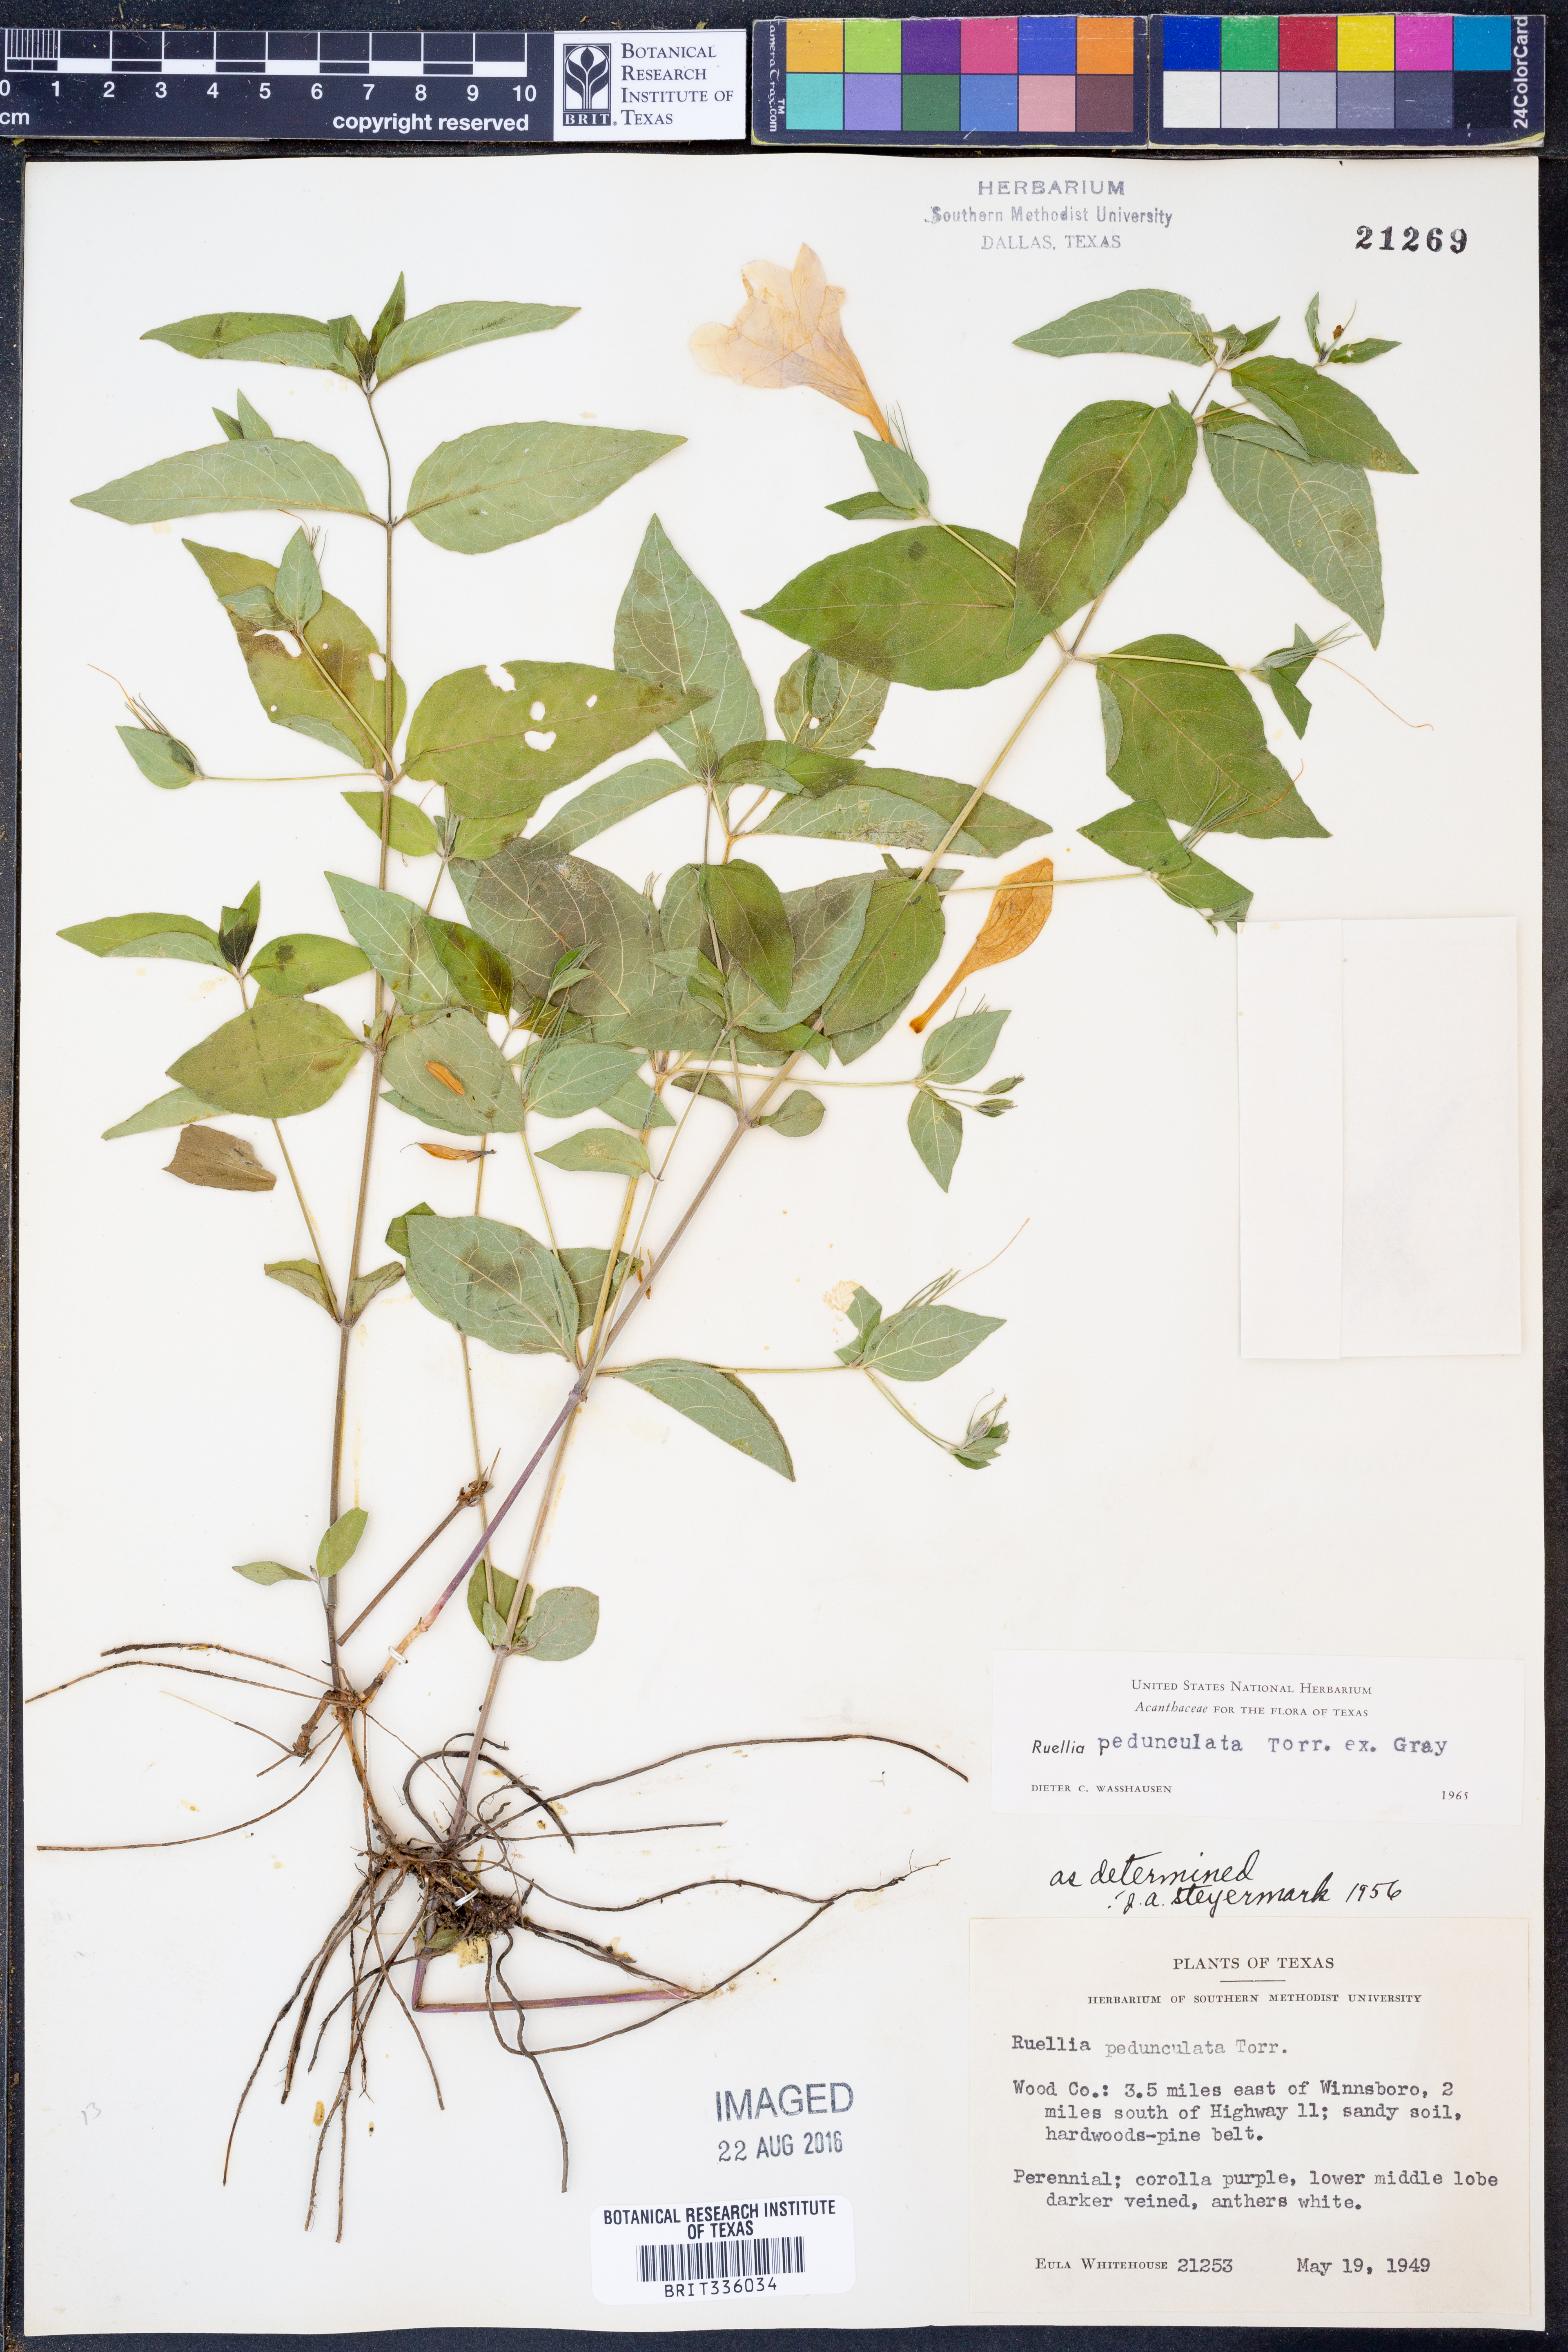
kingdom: Plantae
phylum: Tracheophyta
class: Magnoliopsida
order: Lamiales
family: Acanthaceae
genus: Ruellia
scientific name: Ruellia pedunculata
